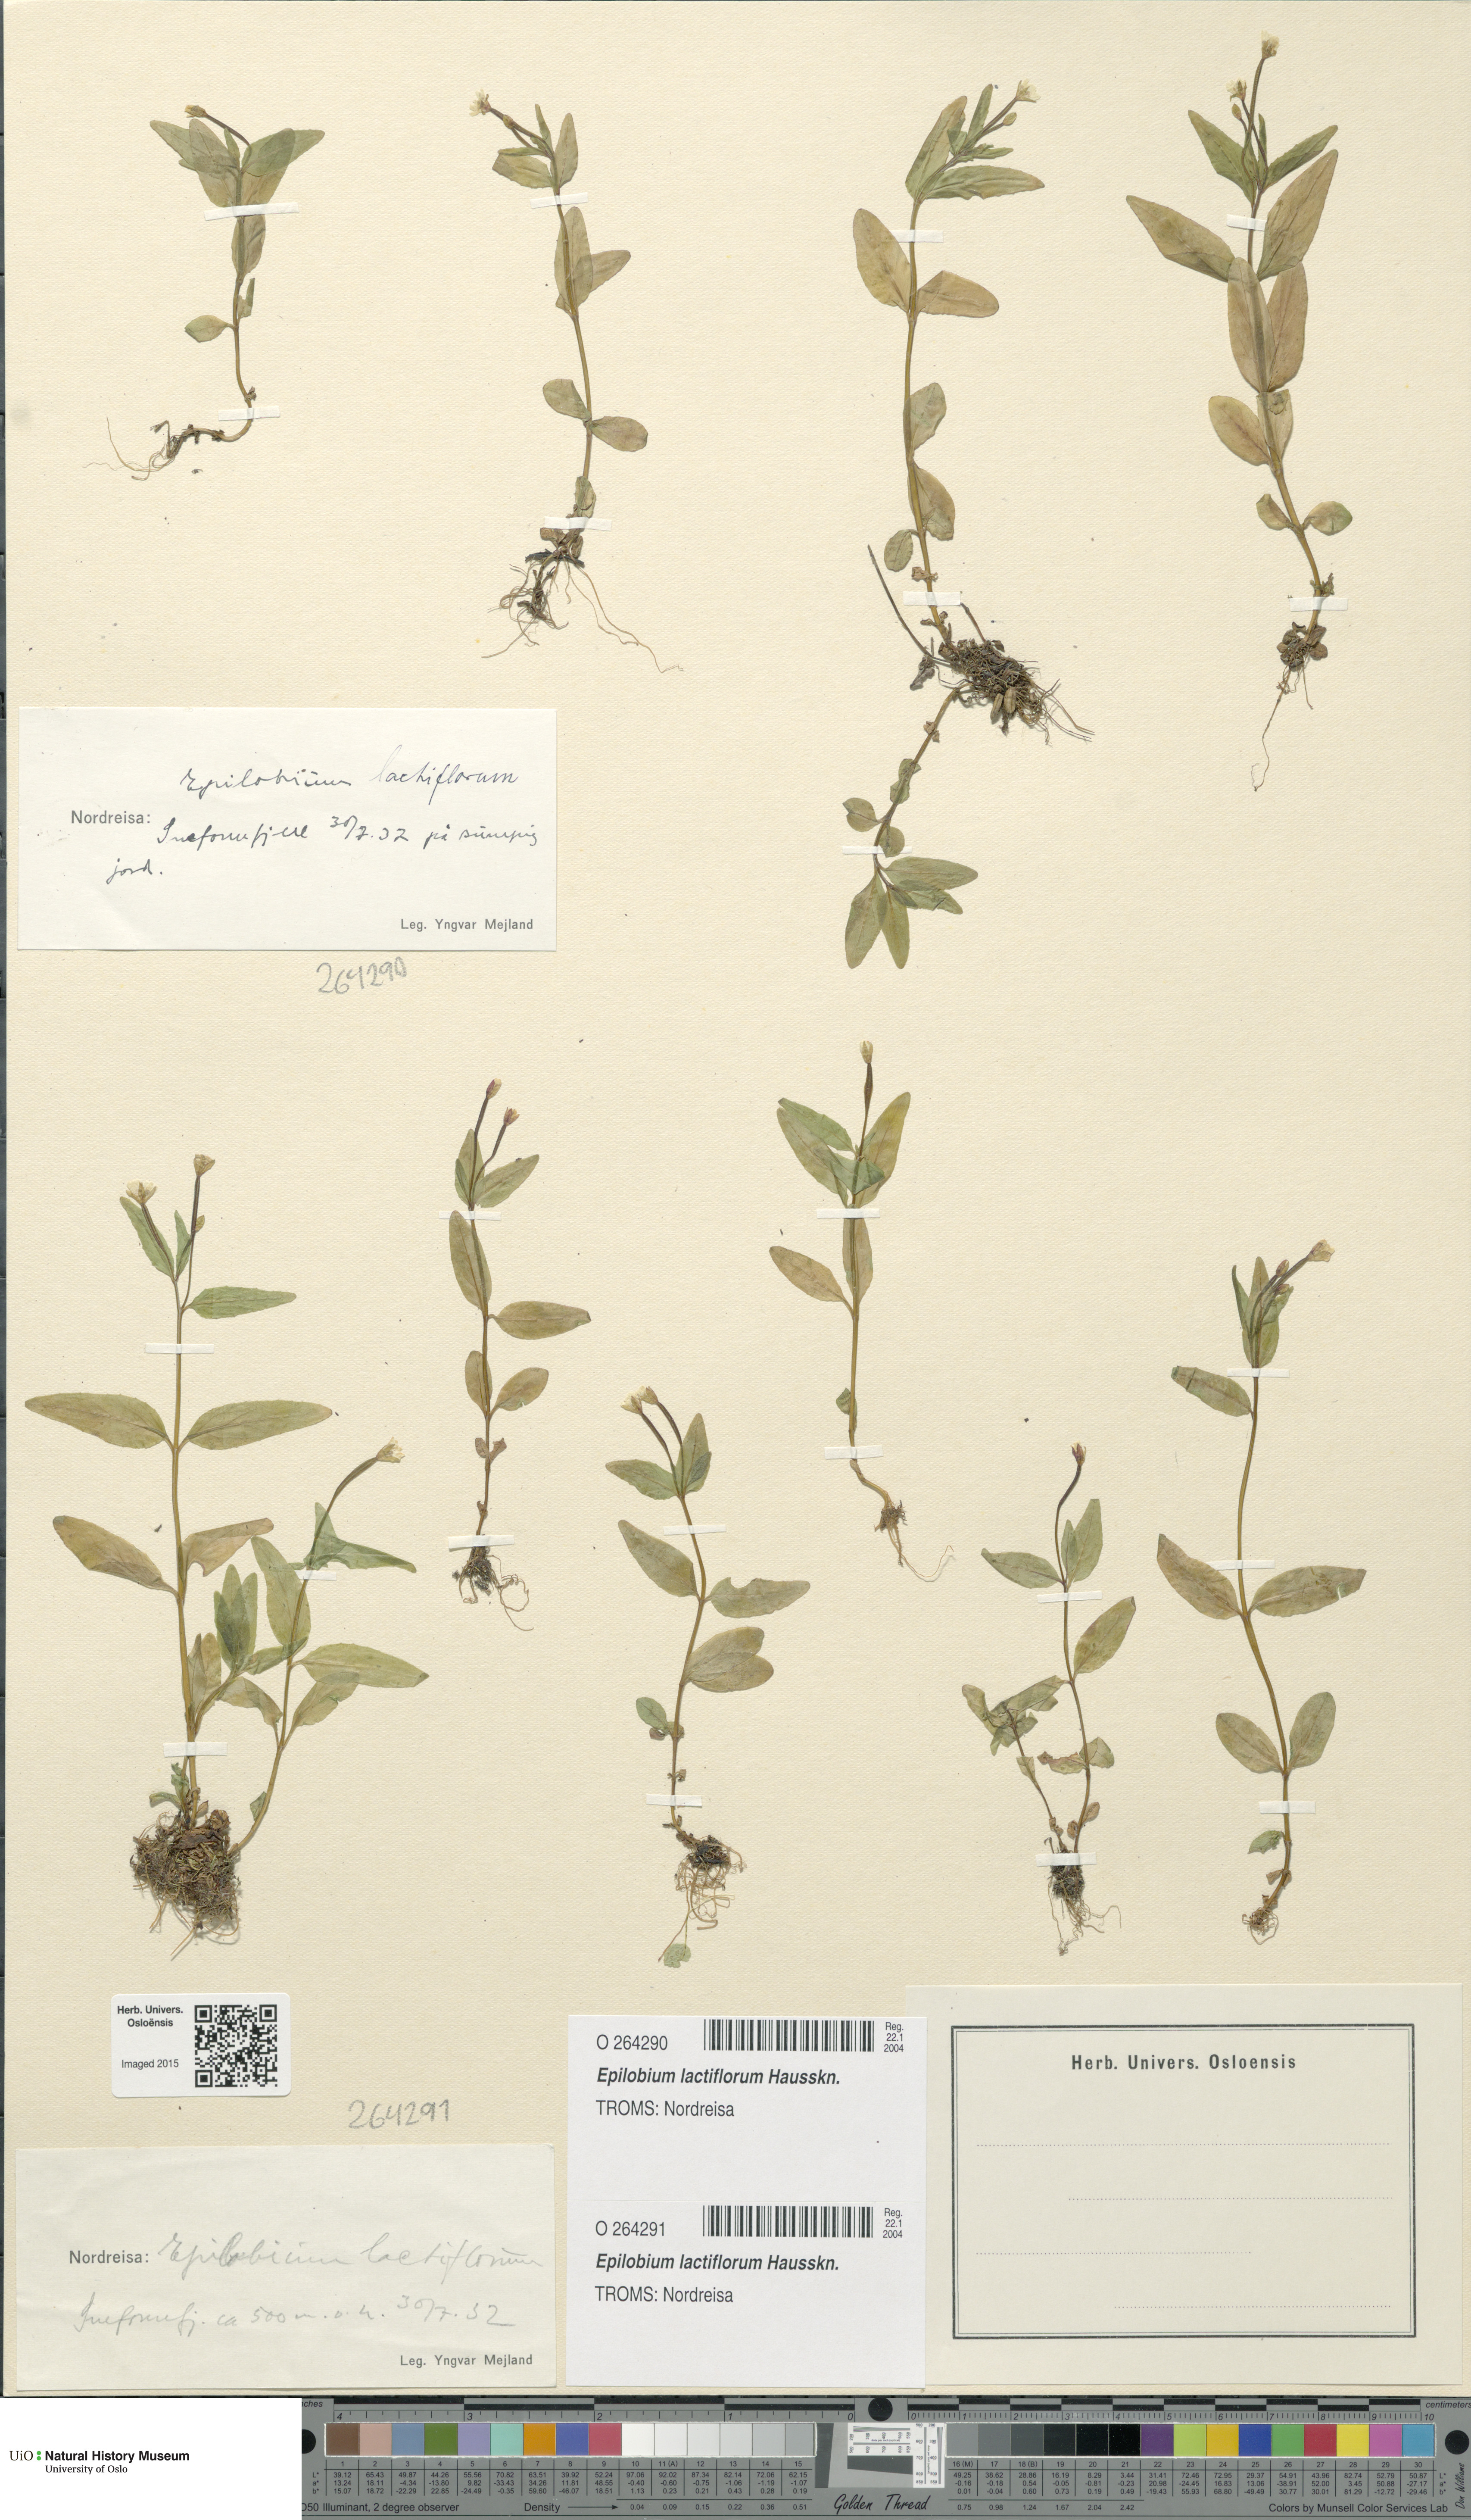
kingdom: Plantae
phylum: Tracheophyta
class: Magnoliopsida
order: Myrtales
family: Onagraceae
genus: Epilobium
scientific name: Epilobium lactiflorum
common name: Milkflower willowherb
